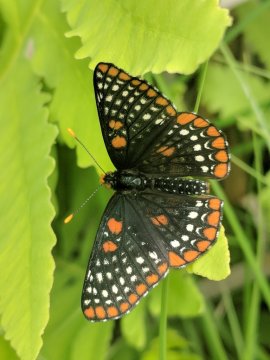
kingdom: Animalia
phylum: Arthropoda
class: Insecta
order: Lepidoptera
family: Nymphalidae
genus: Euphydryas
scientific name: Euphydryas phaeton
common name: Baltimore Checkerspot
